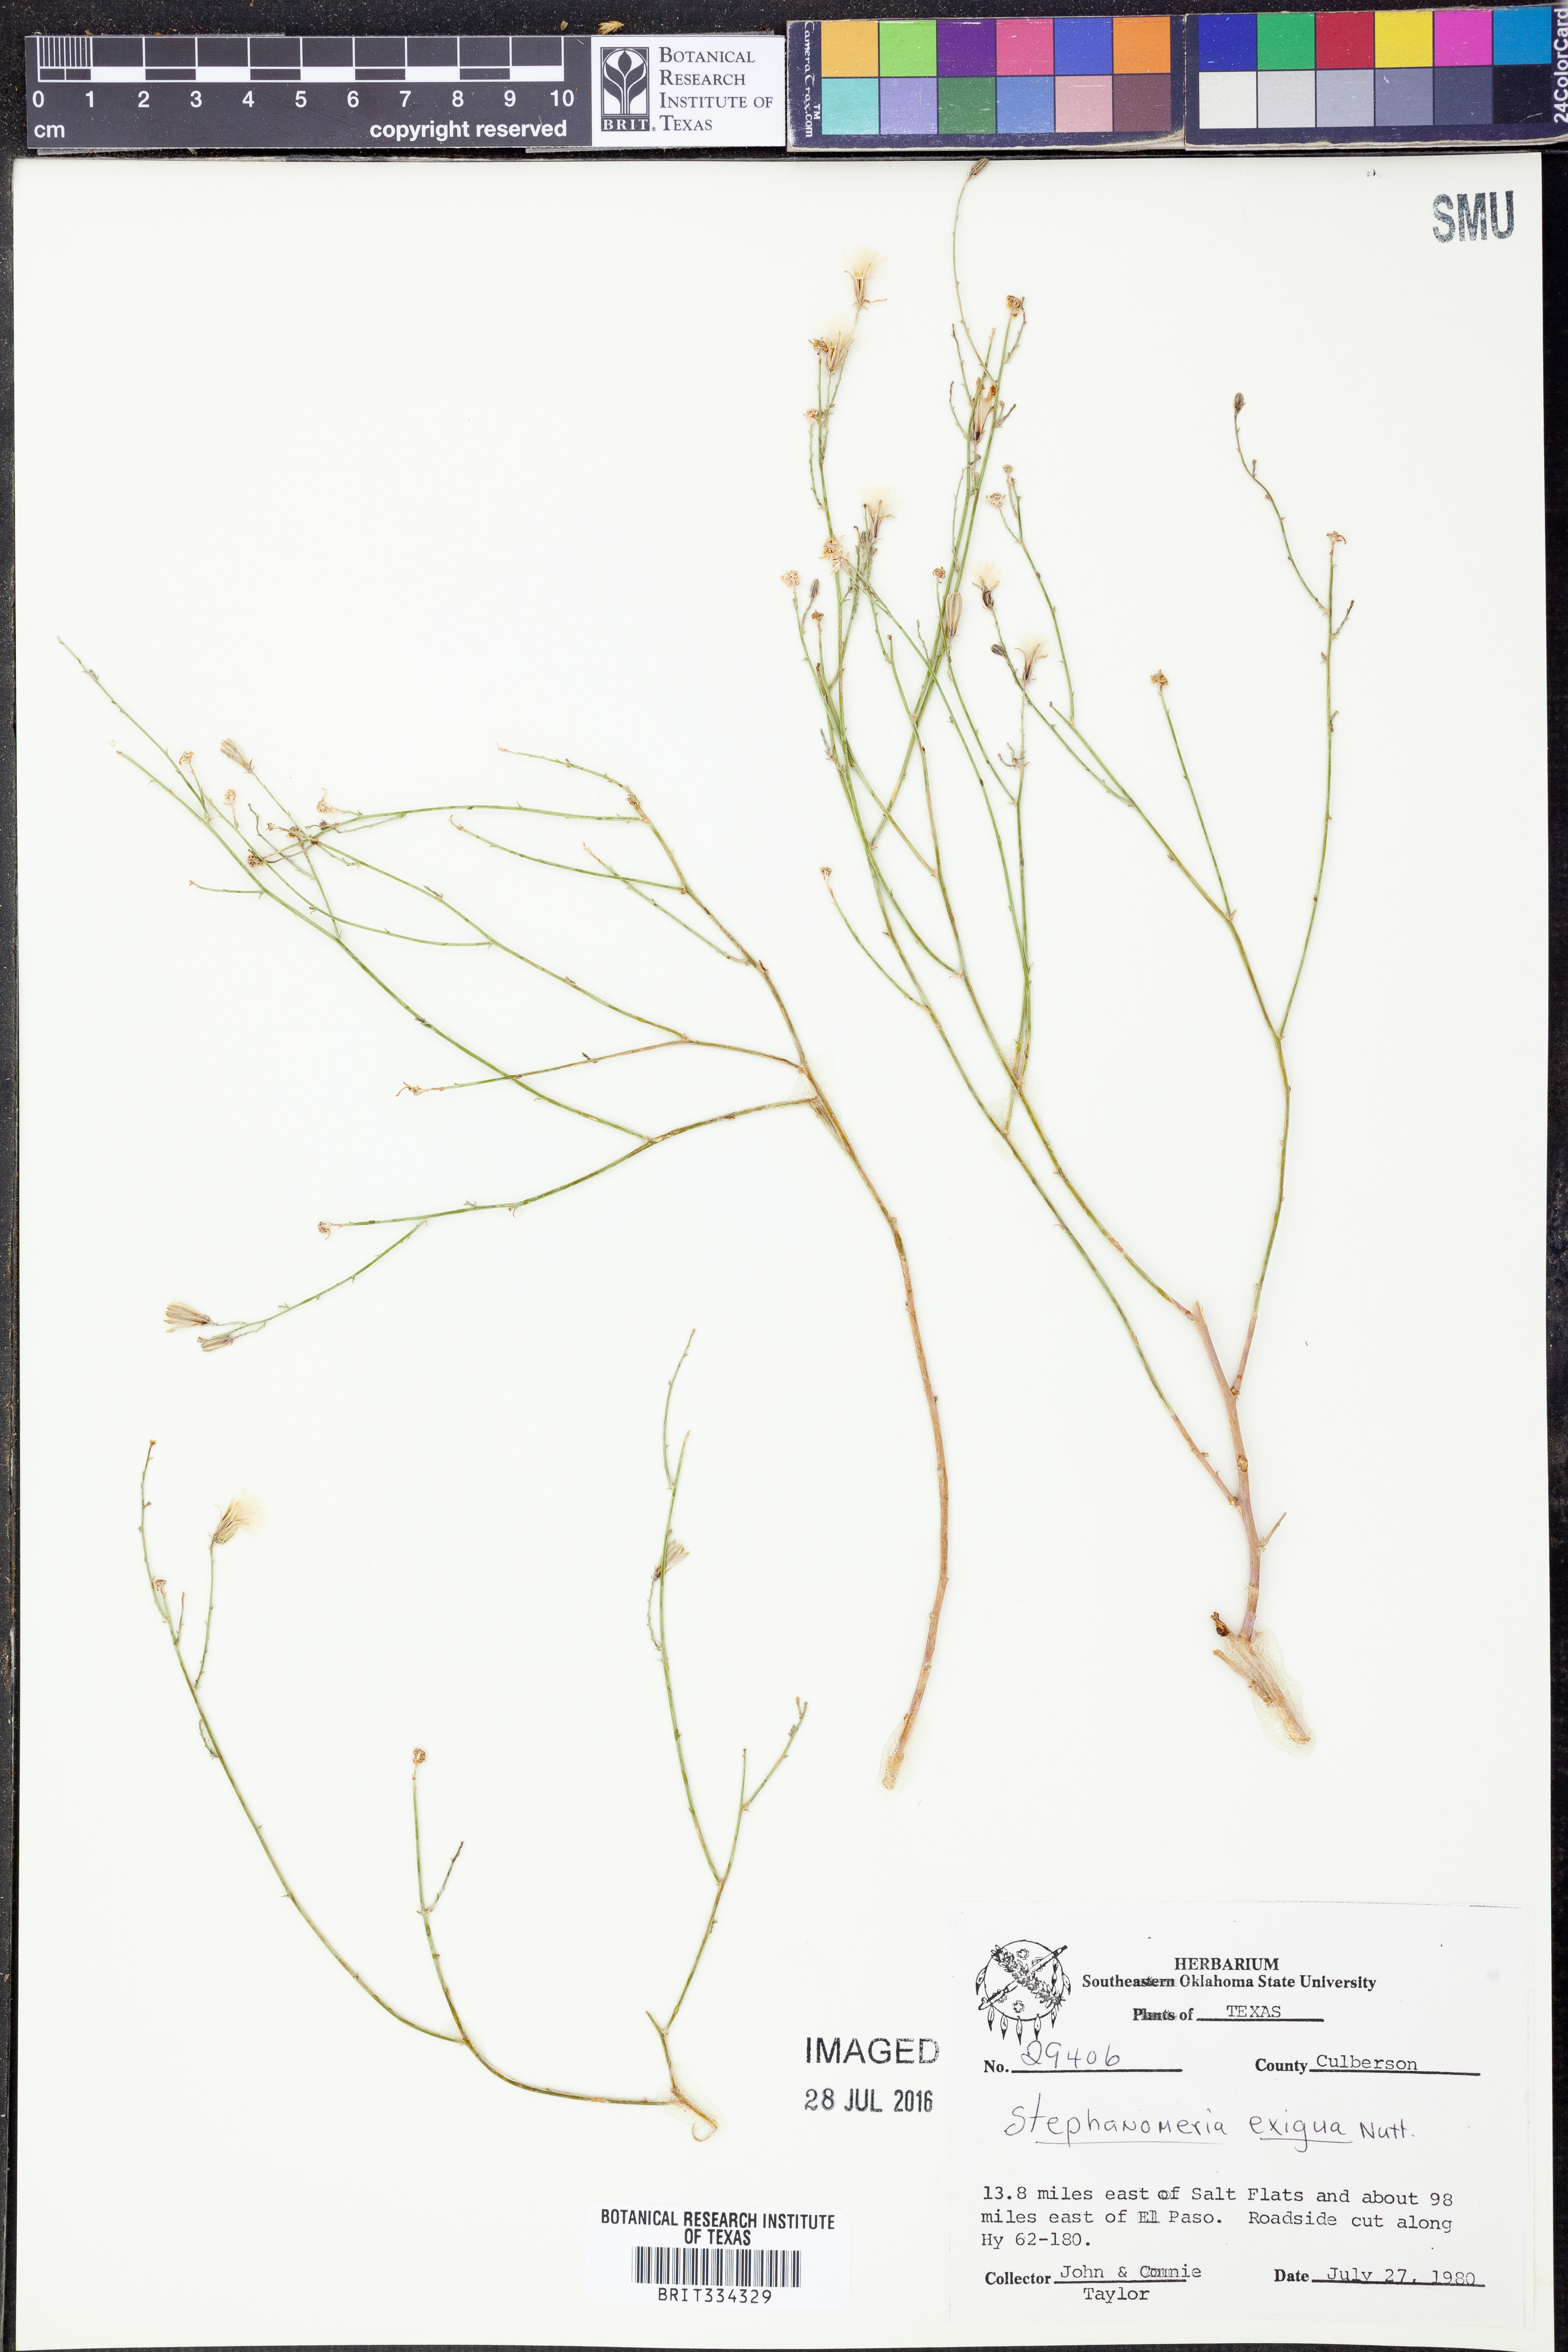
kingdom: Plantae
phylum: Tracheophyta
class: Magnoliopsida
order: Asterales
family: Asteraceae
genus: Stephanomeria
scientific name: Stephanomeria exigua
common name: Small wirelettuce
